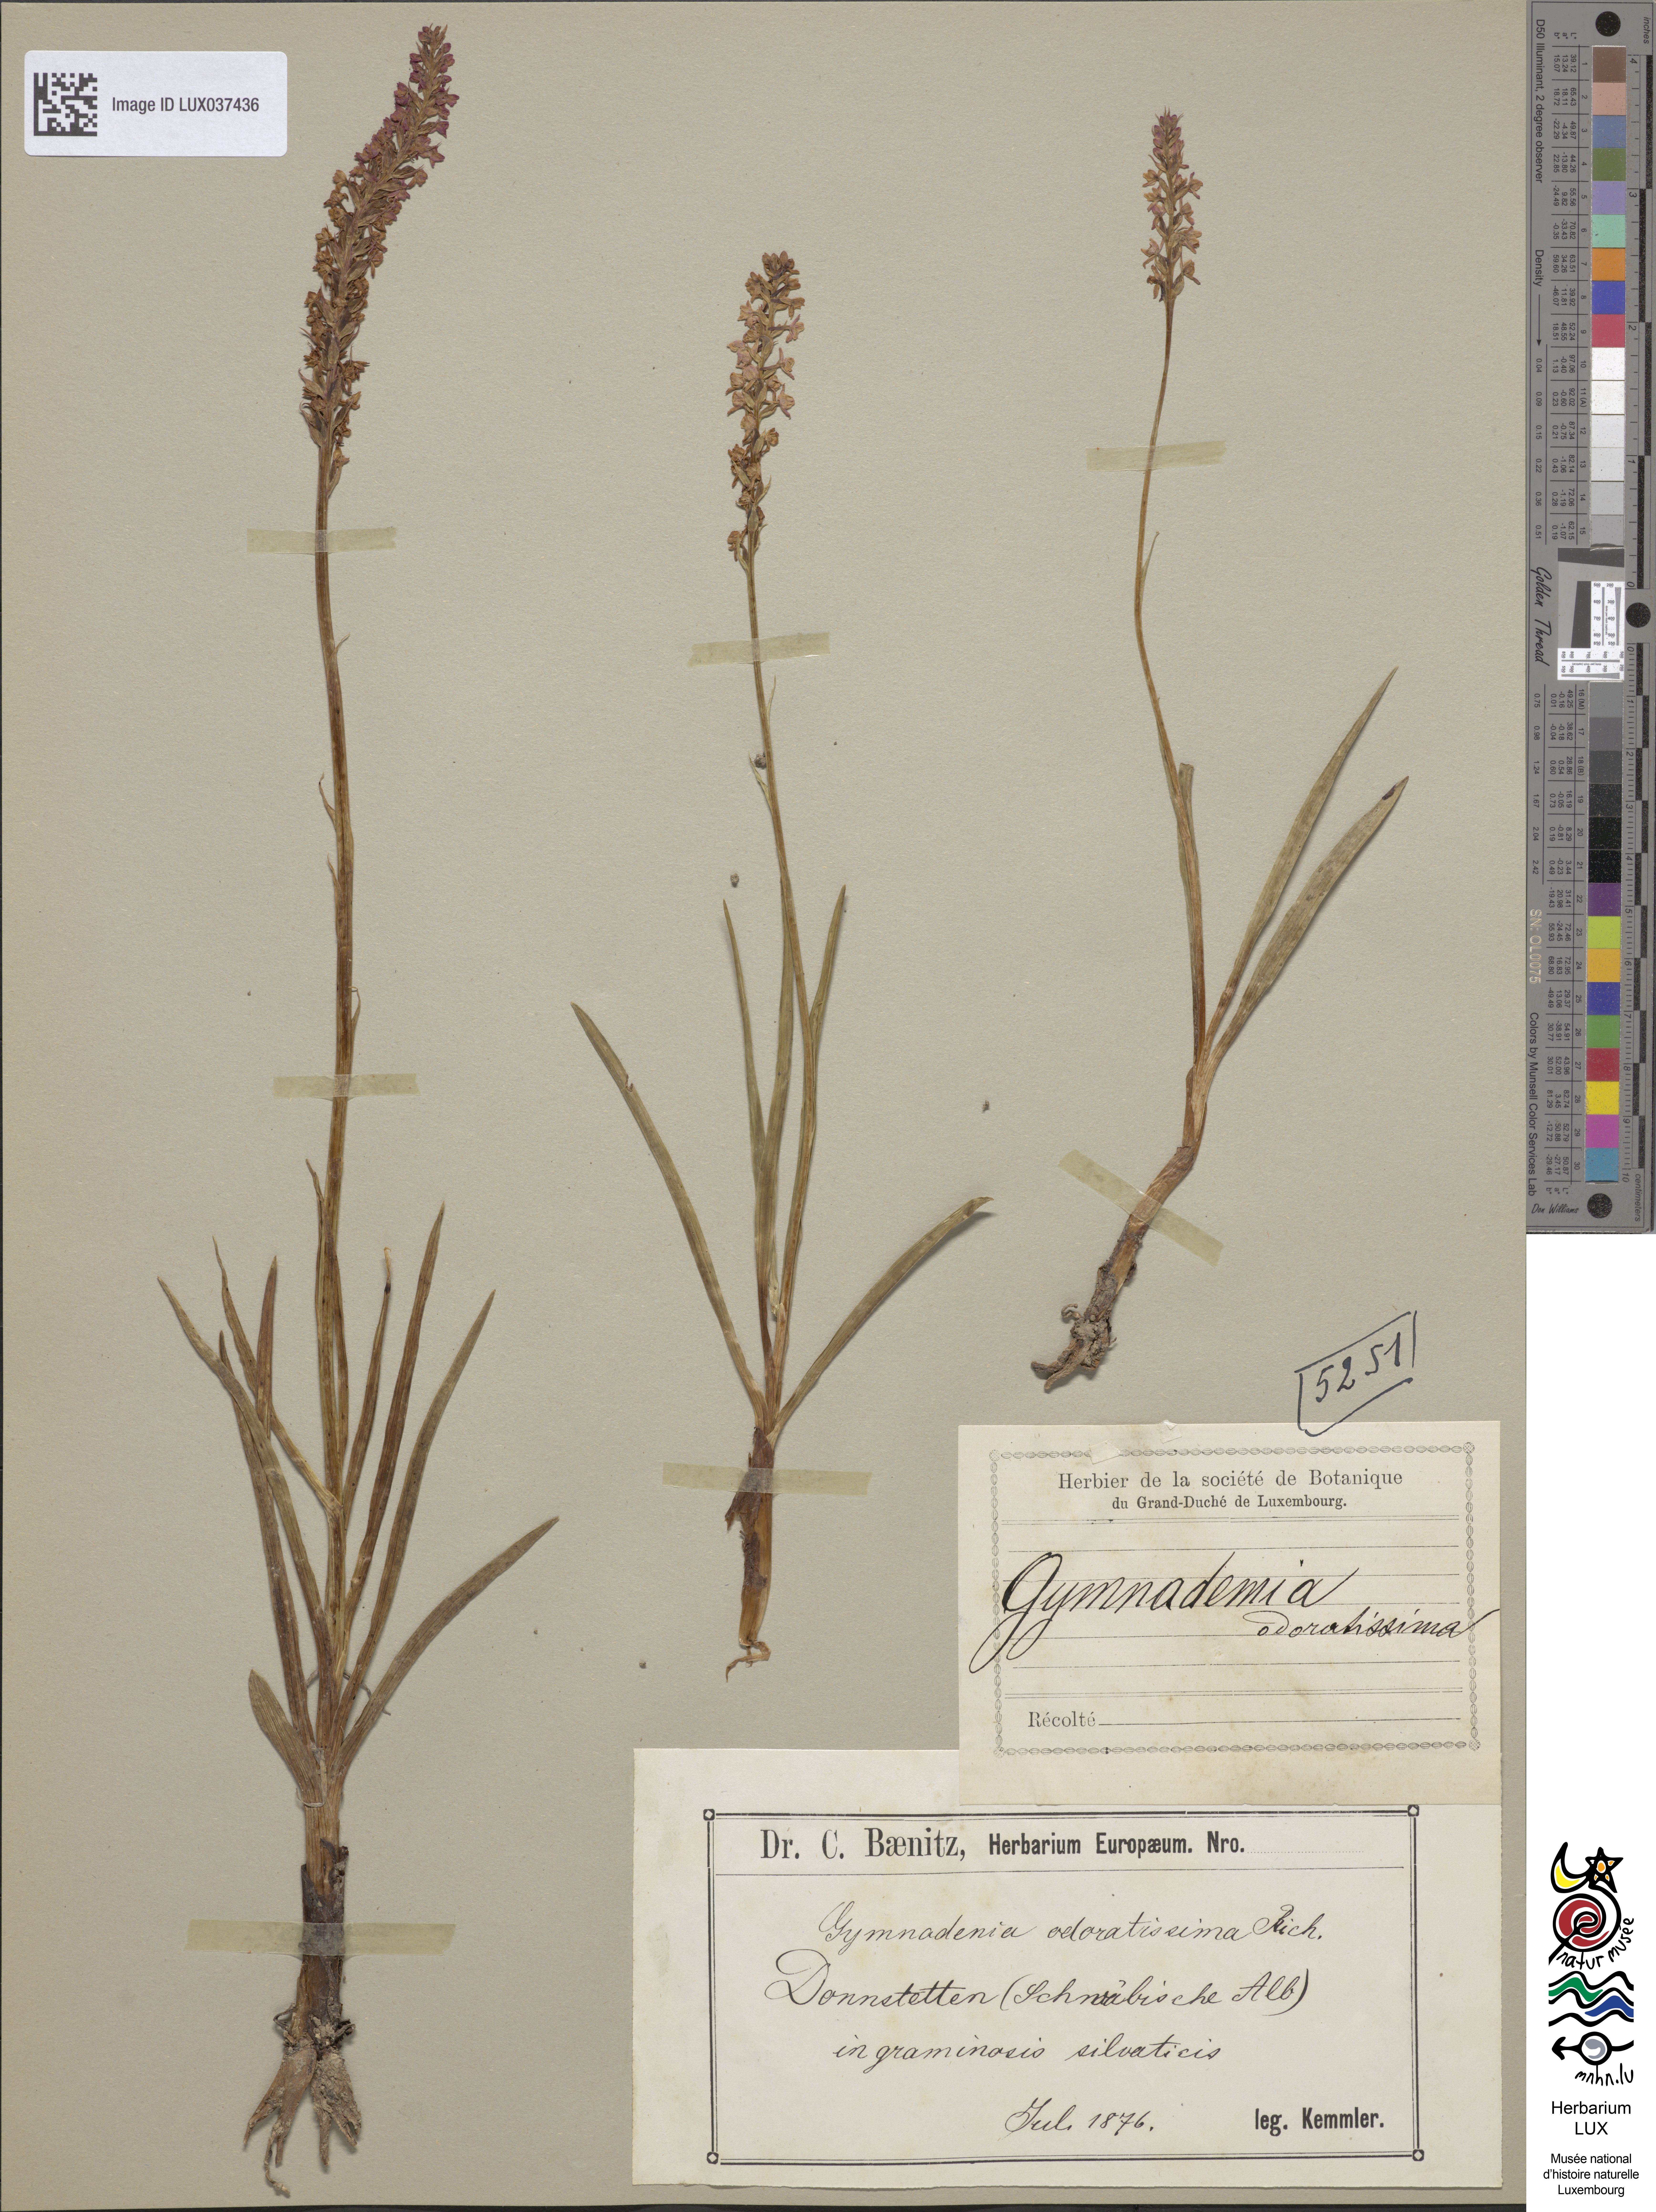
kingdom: Plantae
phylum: Tracheophyta
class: Liliopsida
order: Asparagales
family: Orchidaceae
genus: Gymnadenia
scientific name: Gymnadenia odoratissima
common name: Scented gymnadenia
